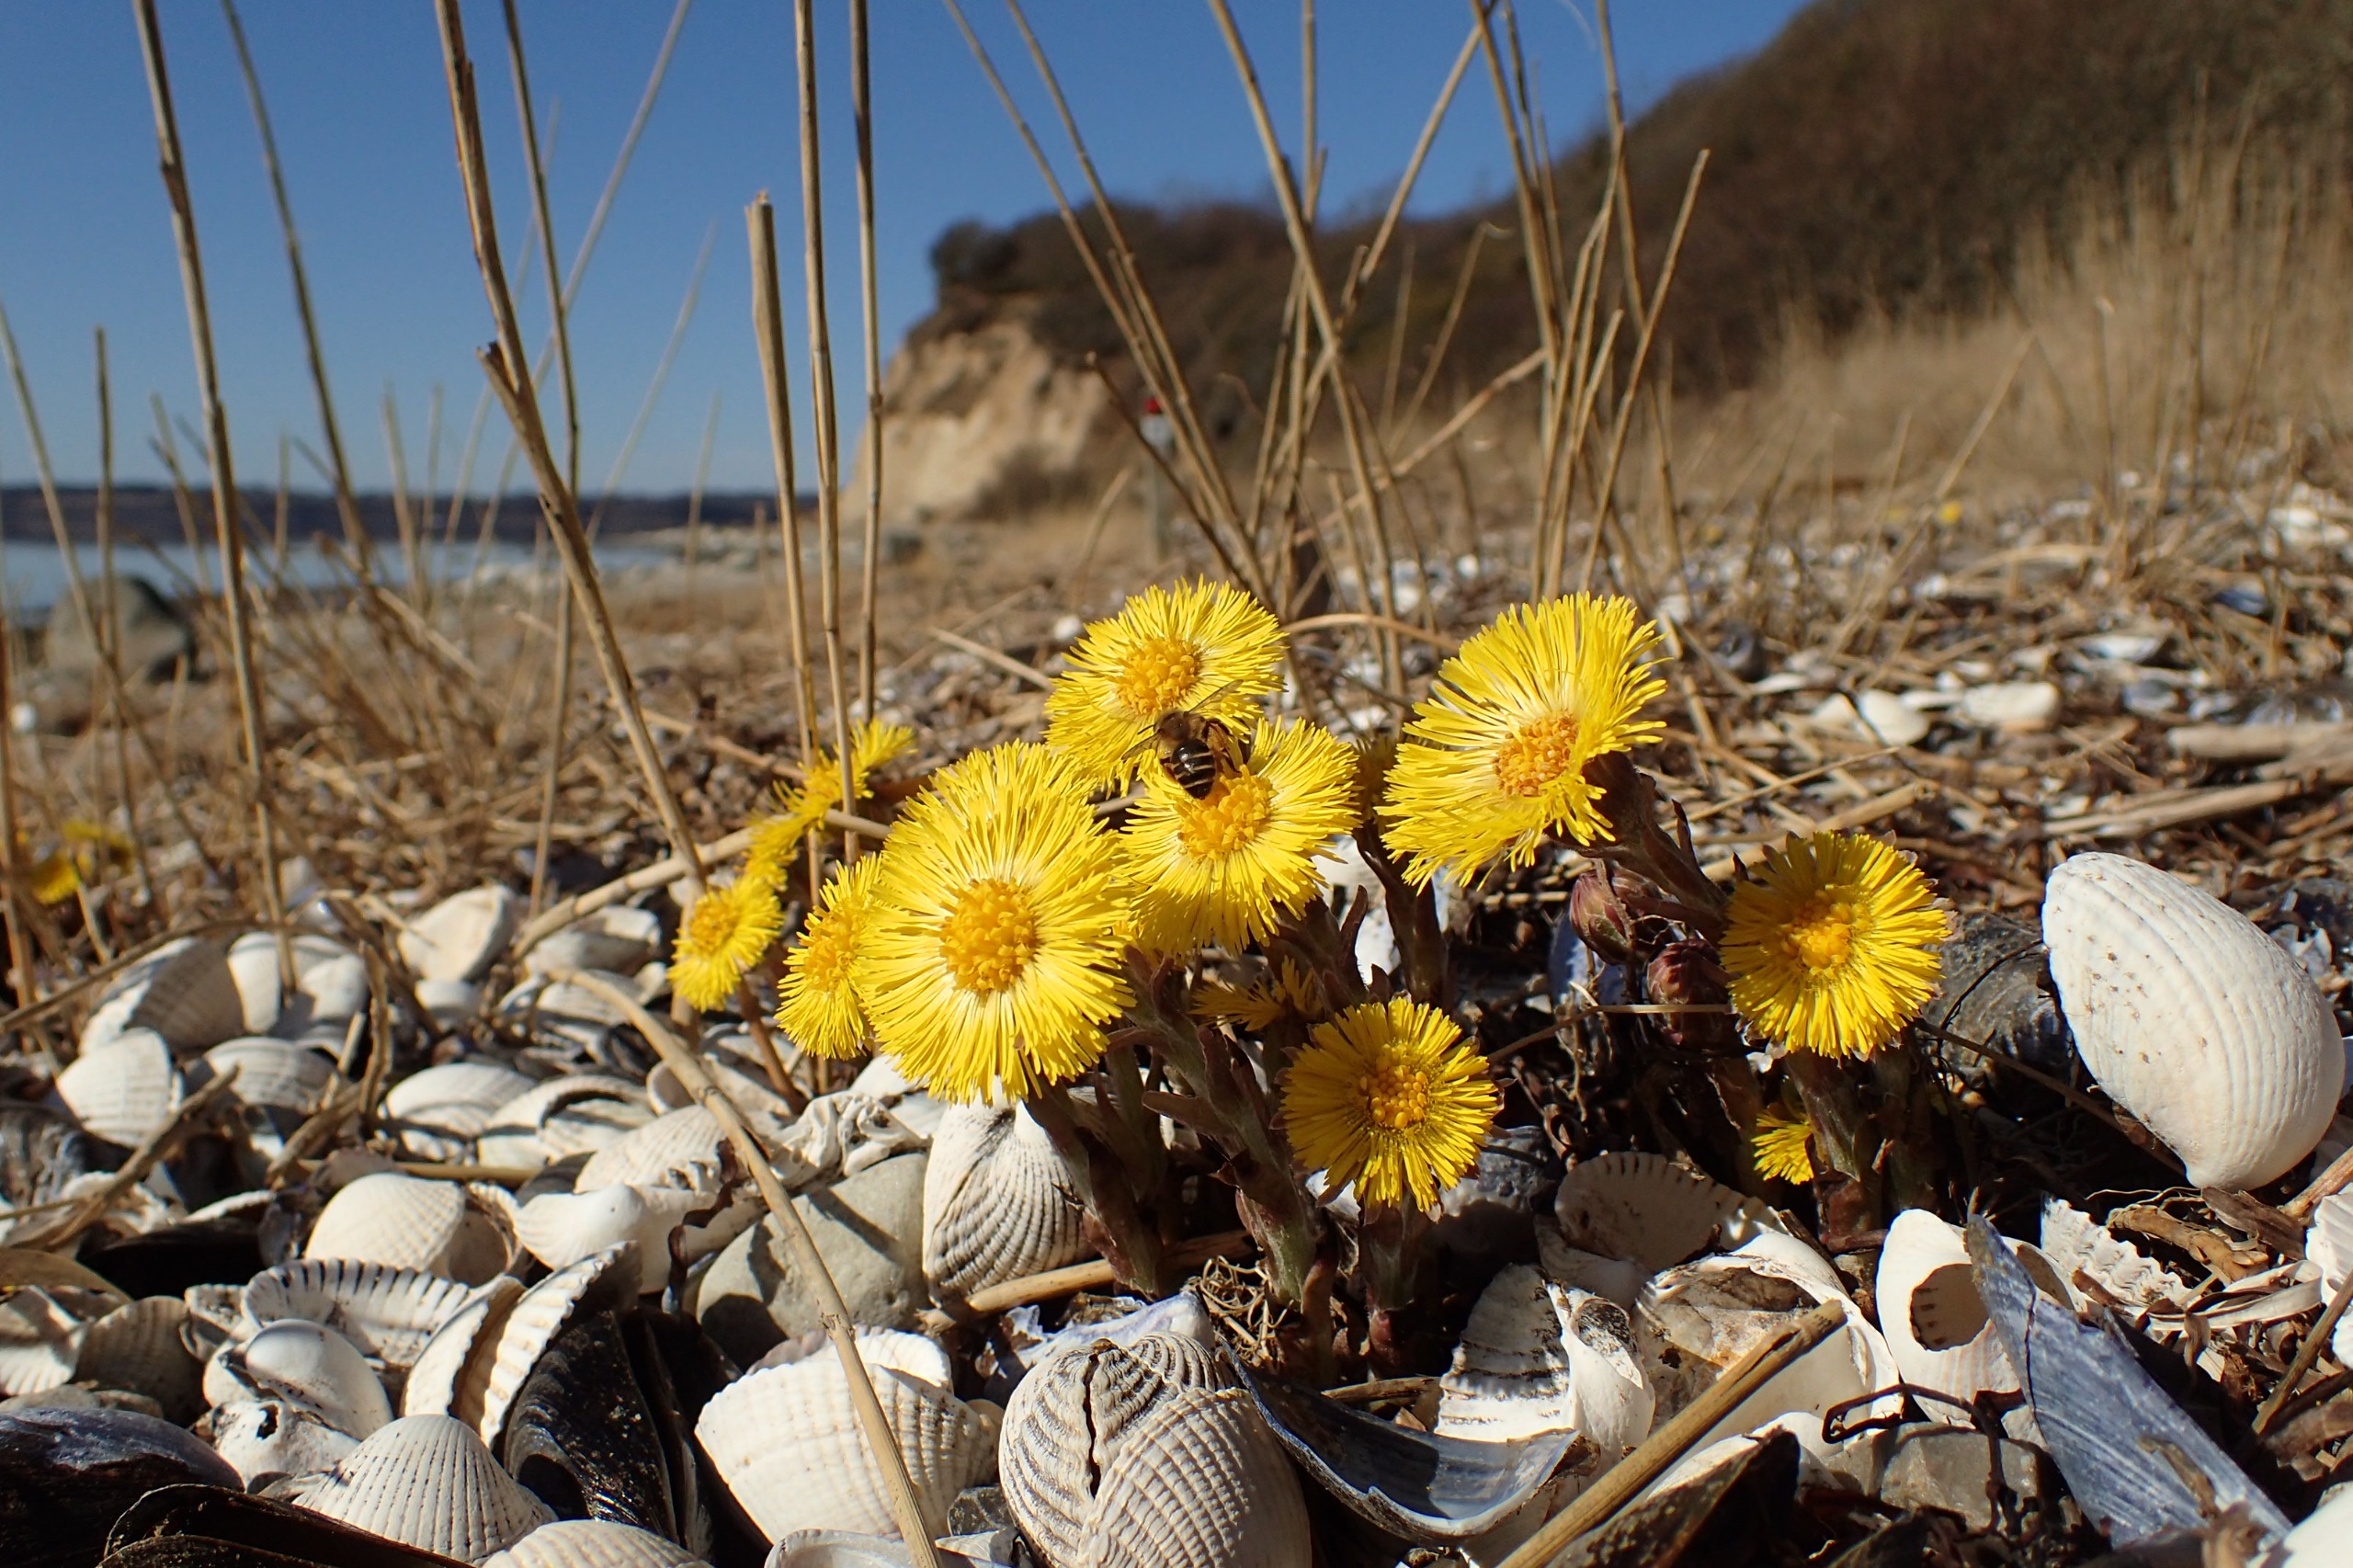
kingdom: Plantae
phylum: Tracheophyta
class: Magnoliopsida
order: Asterales
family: Asteraceae
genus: Tussilago
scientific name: Tussilago farfara
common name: Følfod
